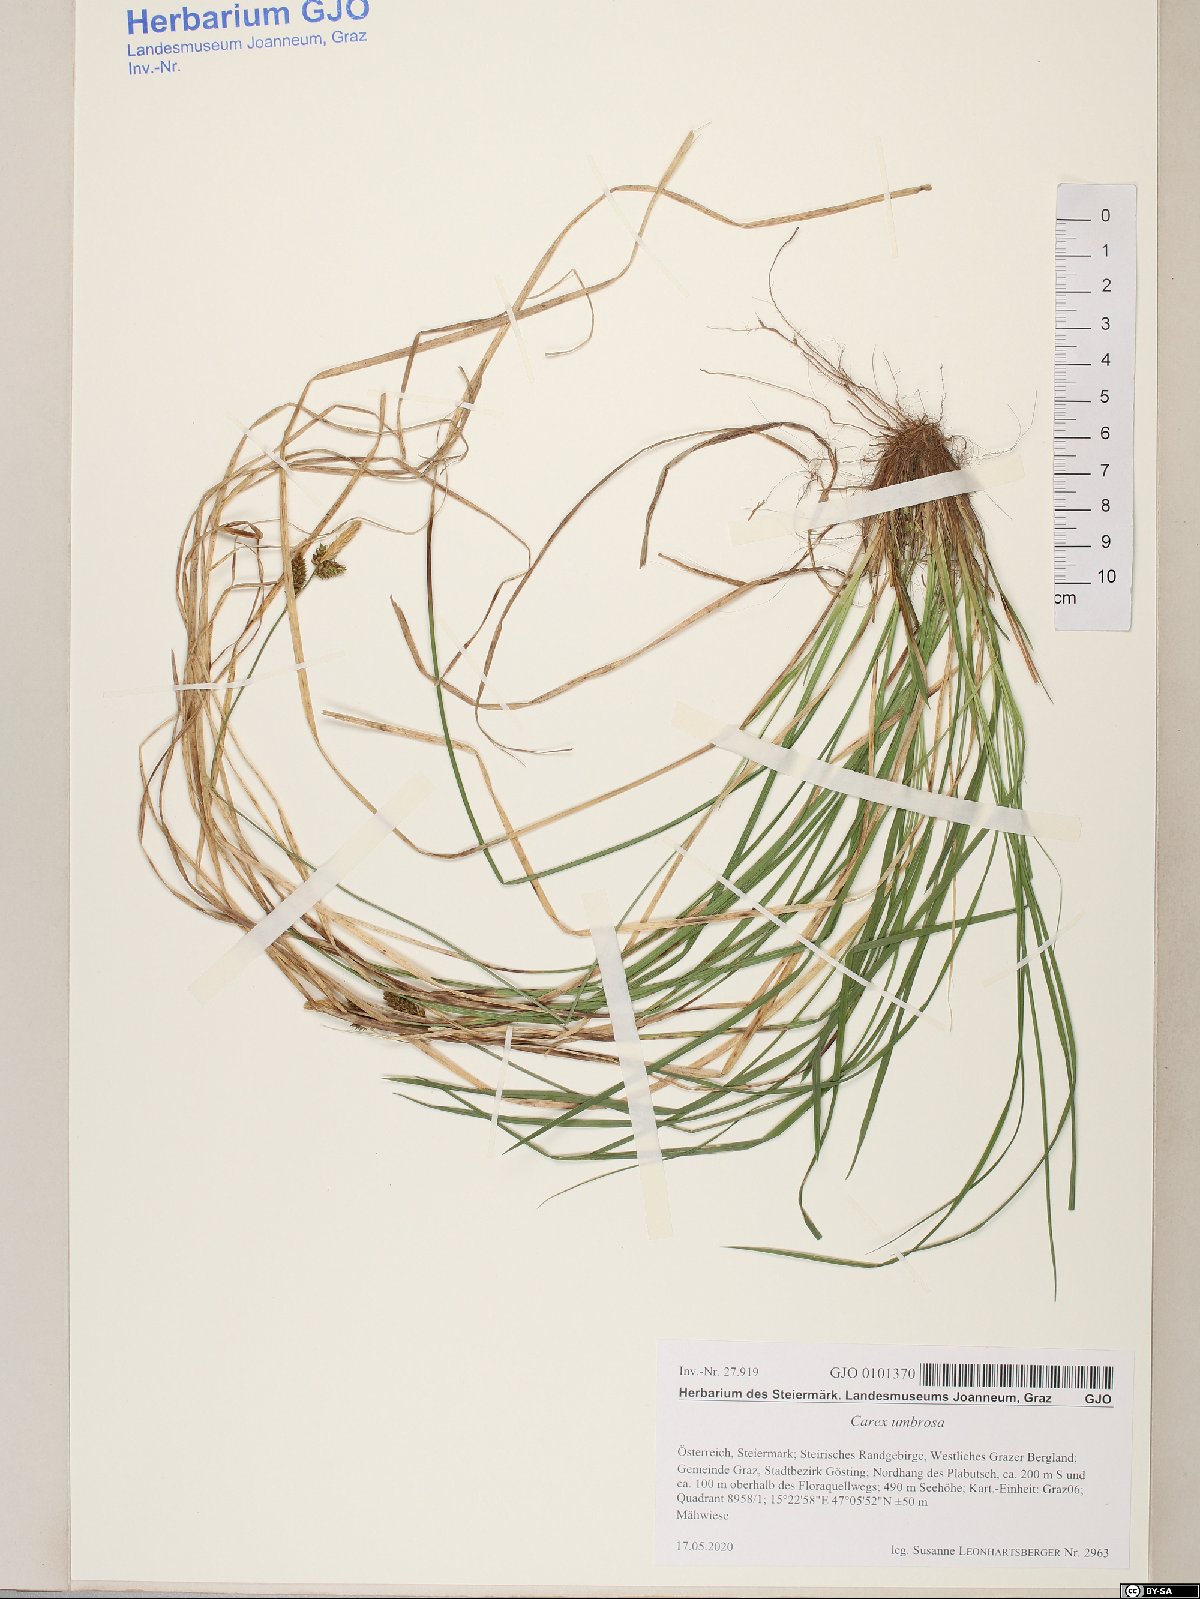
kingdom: Plantae
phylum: Tracheophyta
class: Liliopsida
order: Poales
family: Cyperaceae
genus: Carex
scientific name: Carex umbrosa
